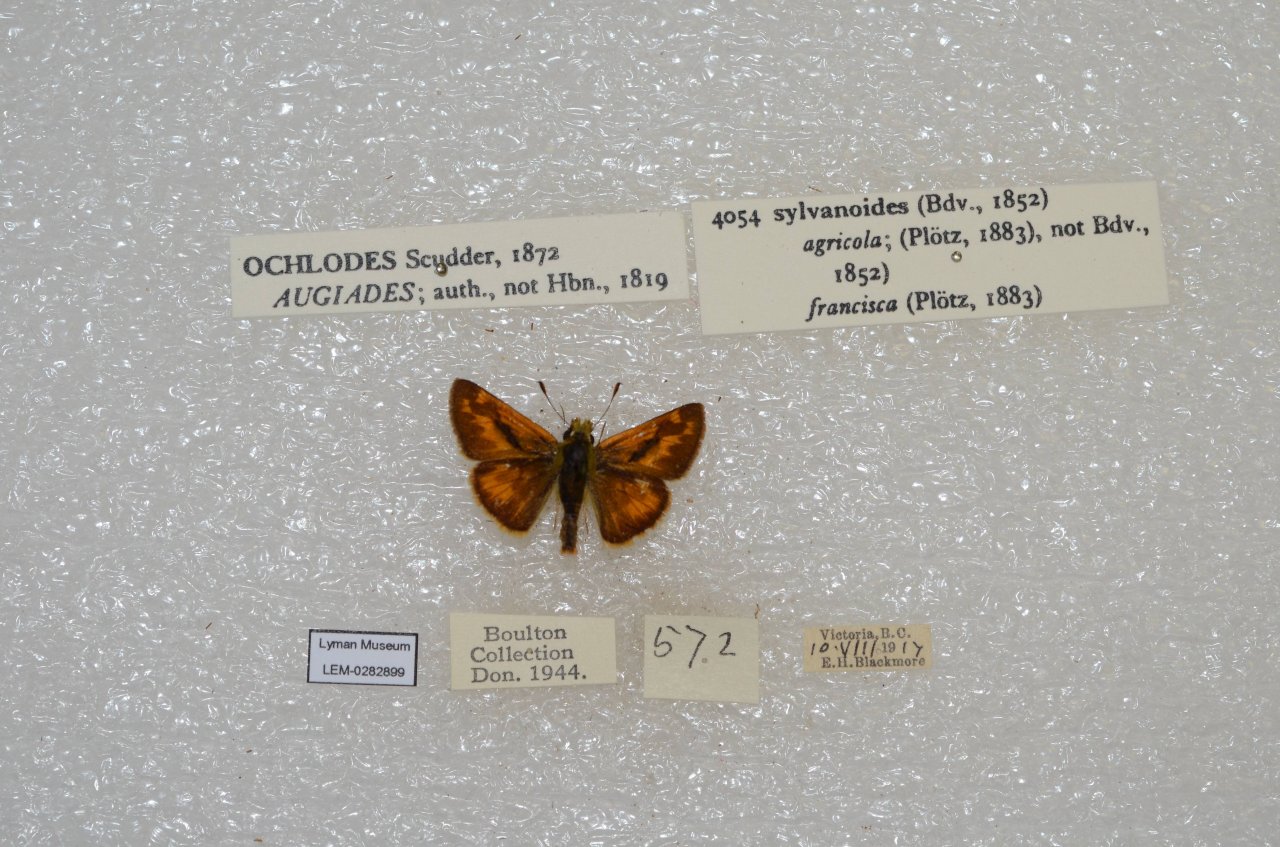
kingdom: Animalia
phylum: Arthropoda
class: Insecta
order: Lepidoptera
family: Hesperiidae
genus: Ochlodes
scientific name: Ochlodes sylvanoides
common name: Woodland Skipper
